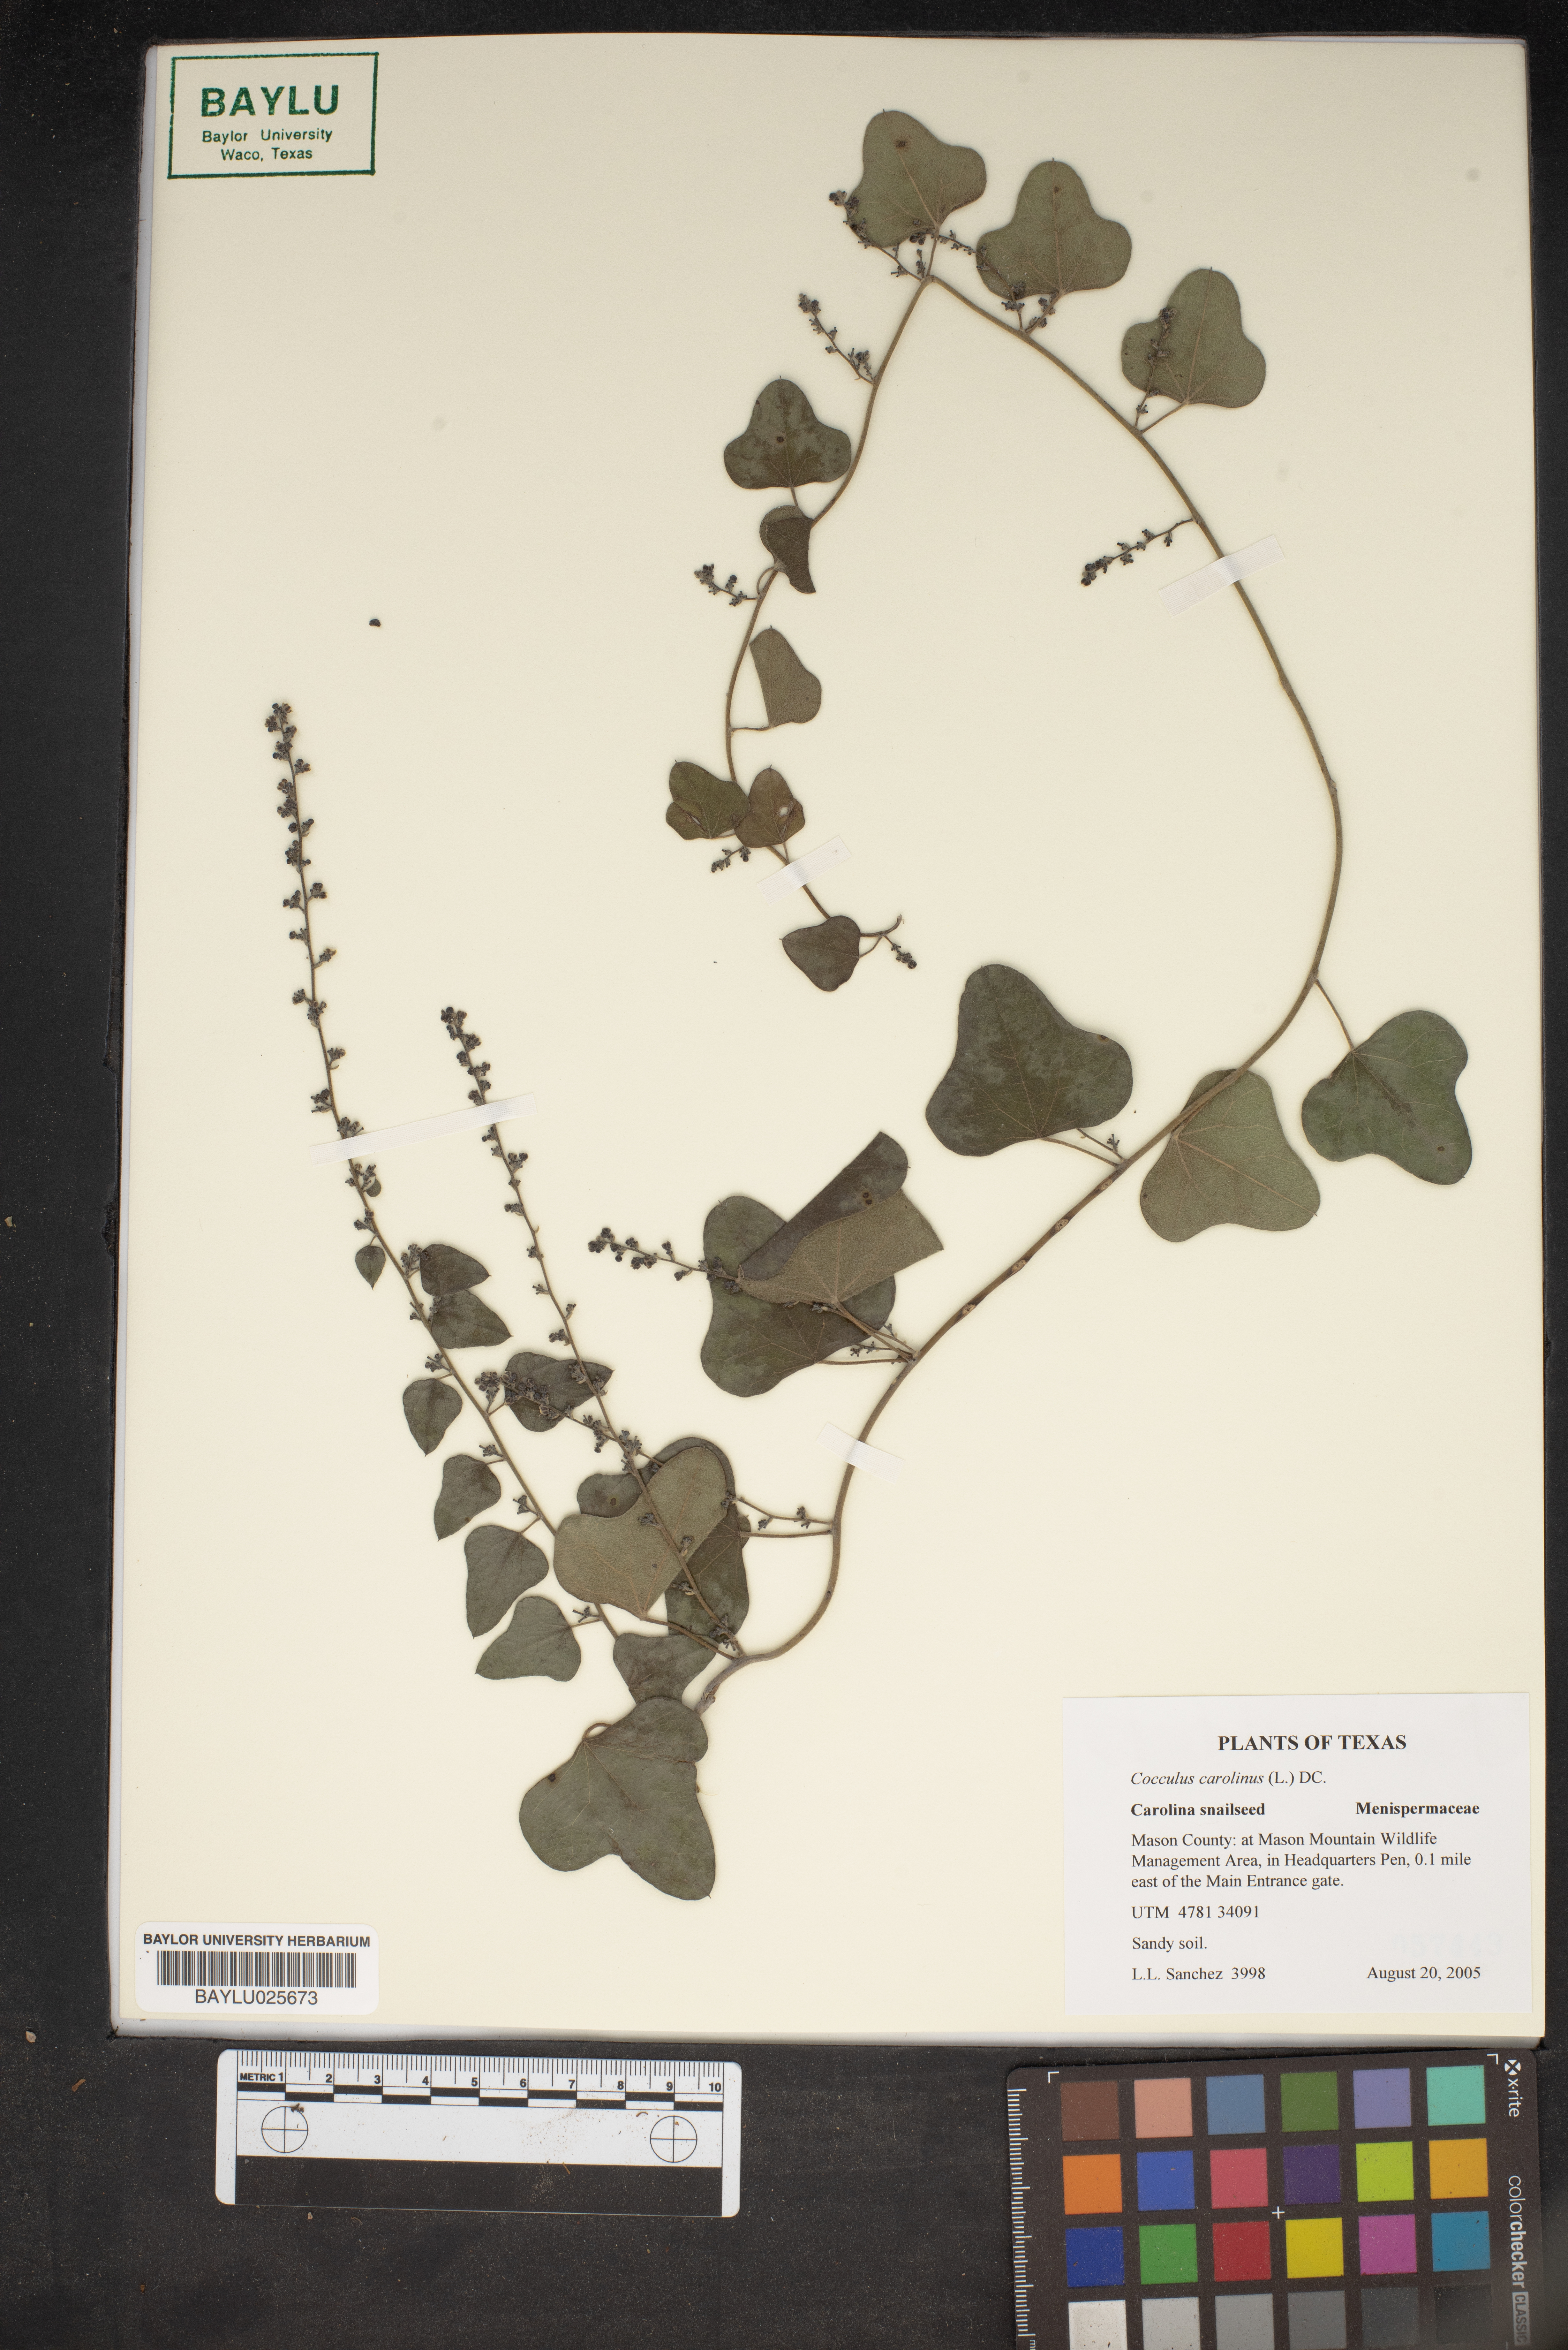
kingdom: Plantae
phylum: Tracheophyta
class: Magnoliopsida
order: Ranunculales
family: Menispermaceae
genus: Cocculus
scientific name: Cocculus carolinus
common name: Carolina moonseed
